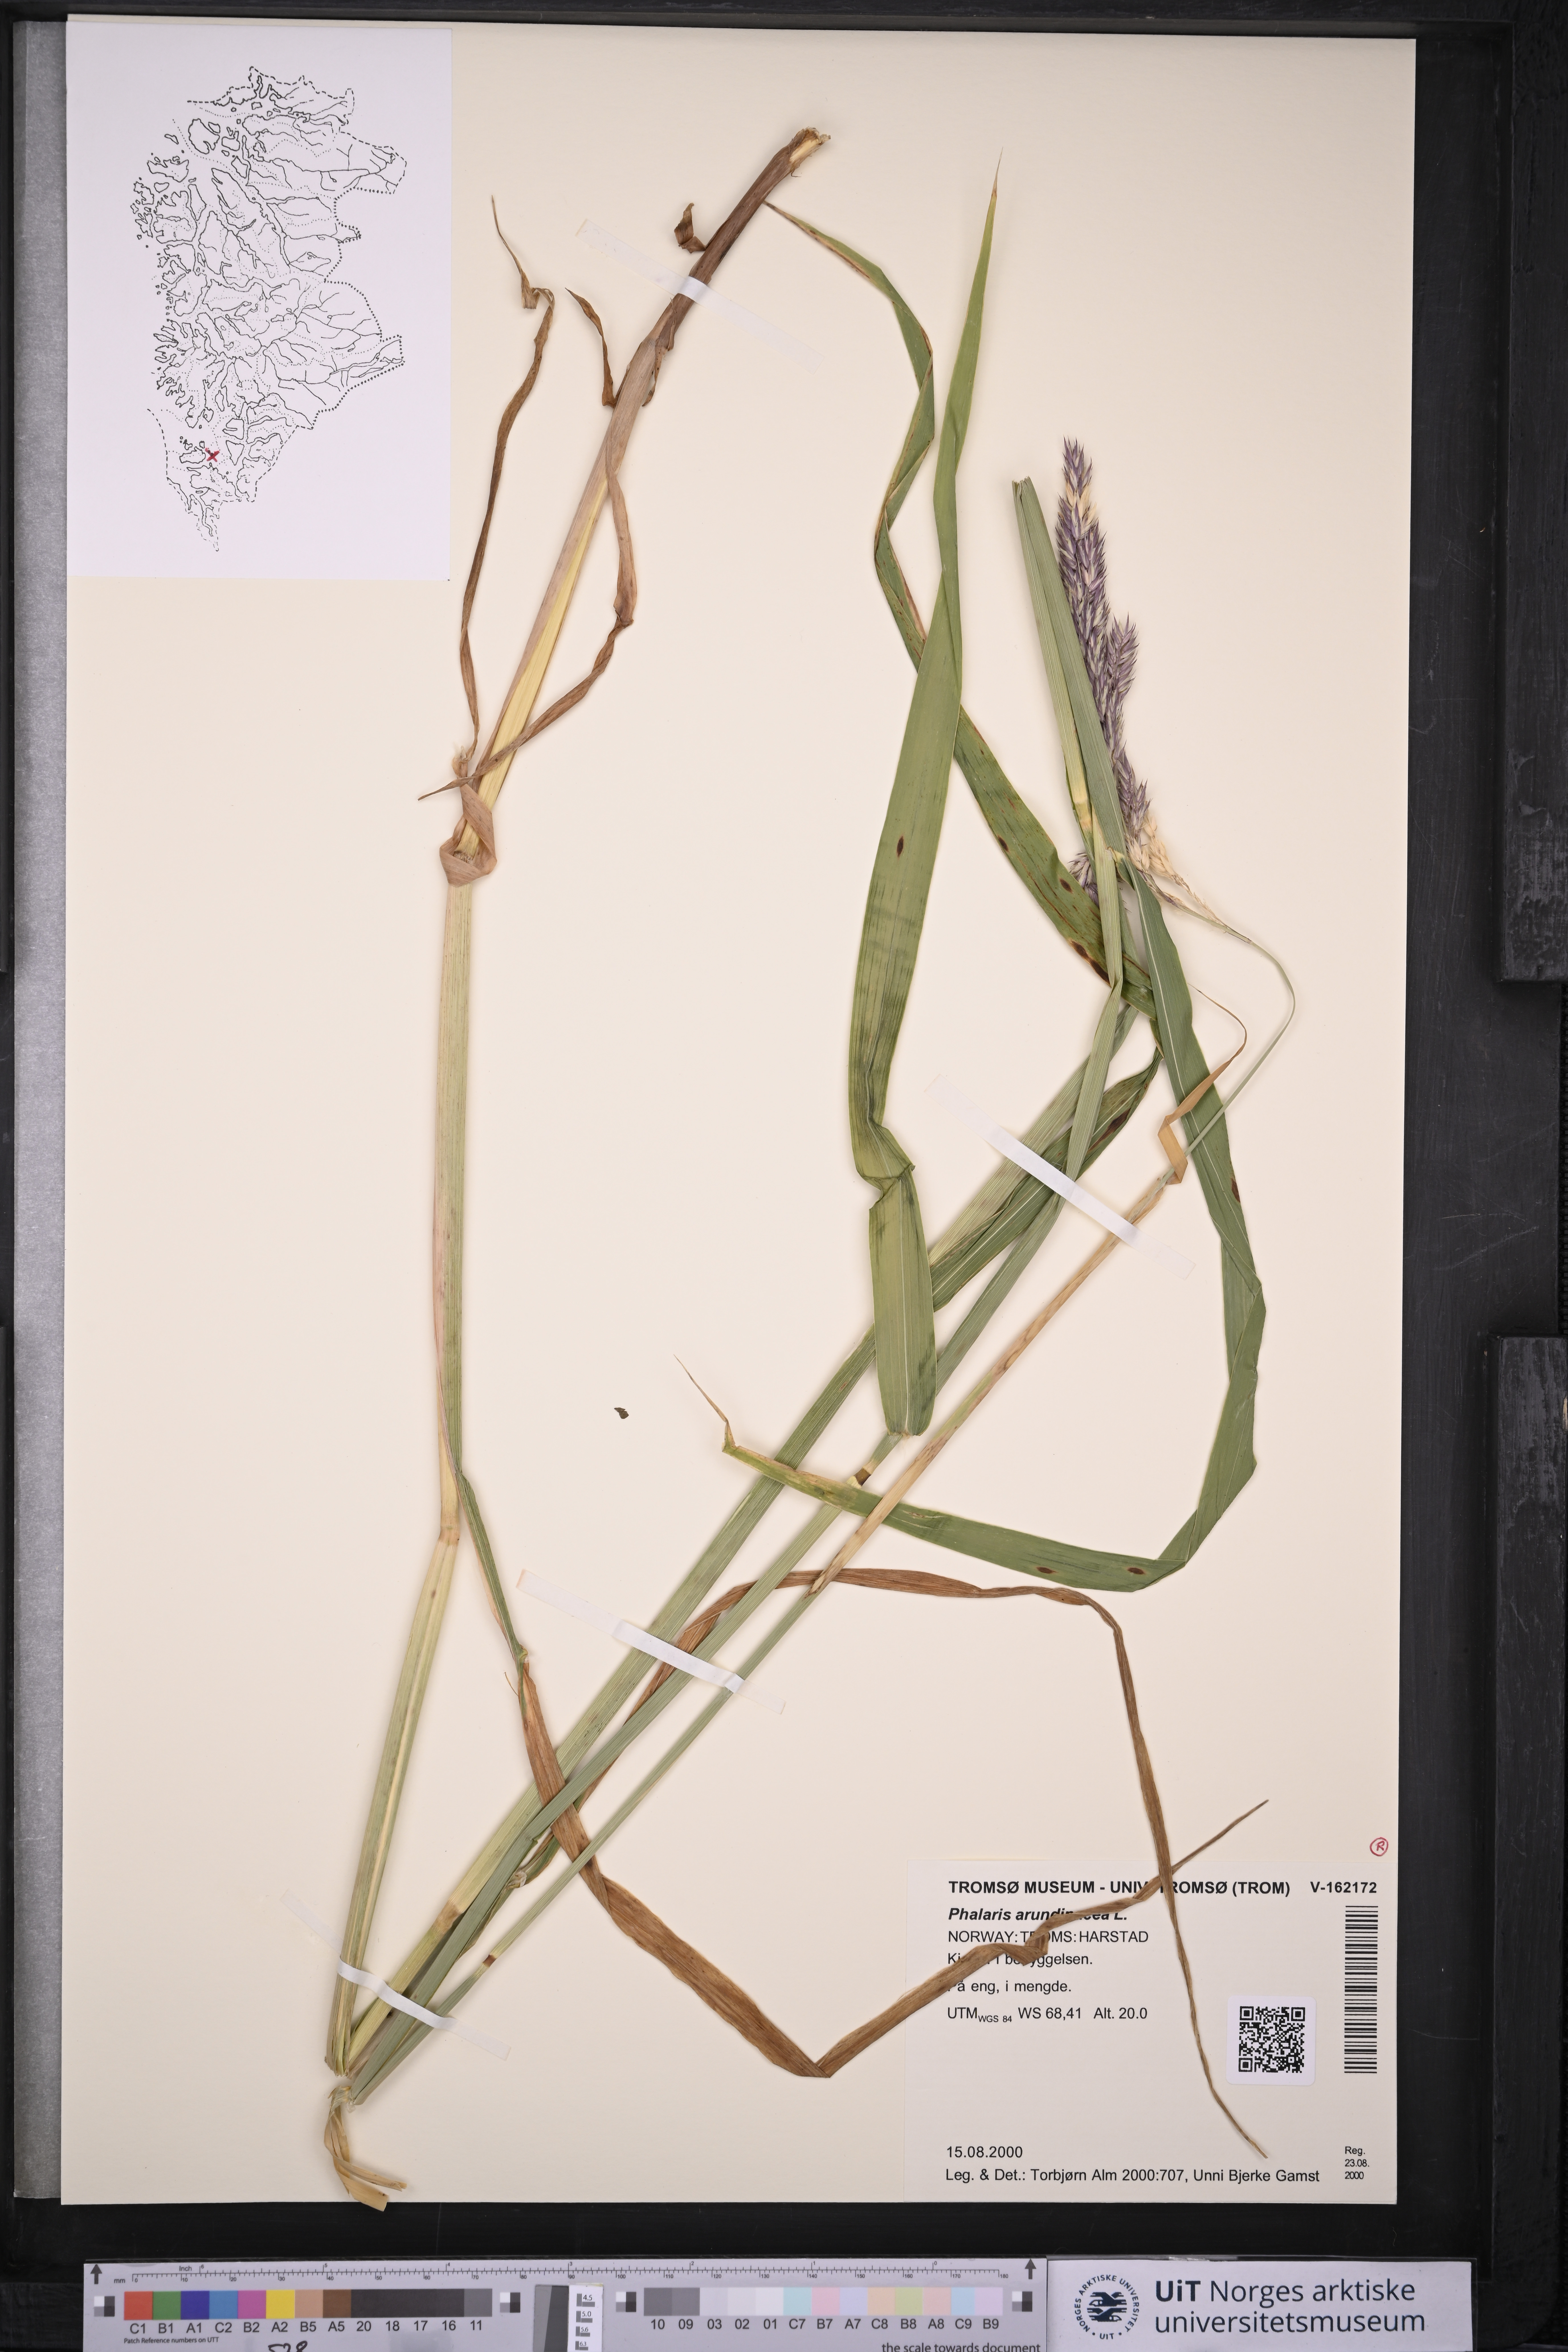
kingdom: Plantae
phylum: Tracheophyta
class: Liliopsida
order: Poales
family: Poaceae
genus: Phalaris
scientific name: Phalaris arundinacea
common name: Reed canary-grass
